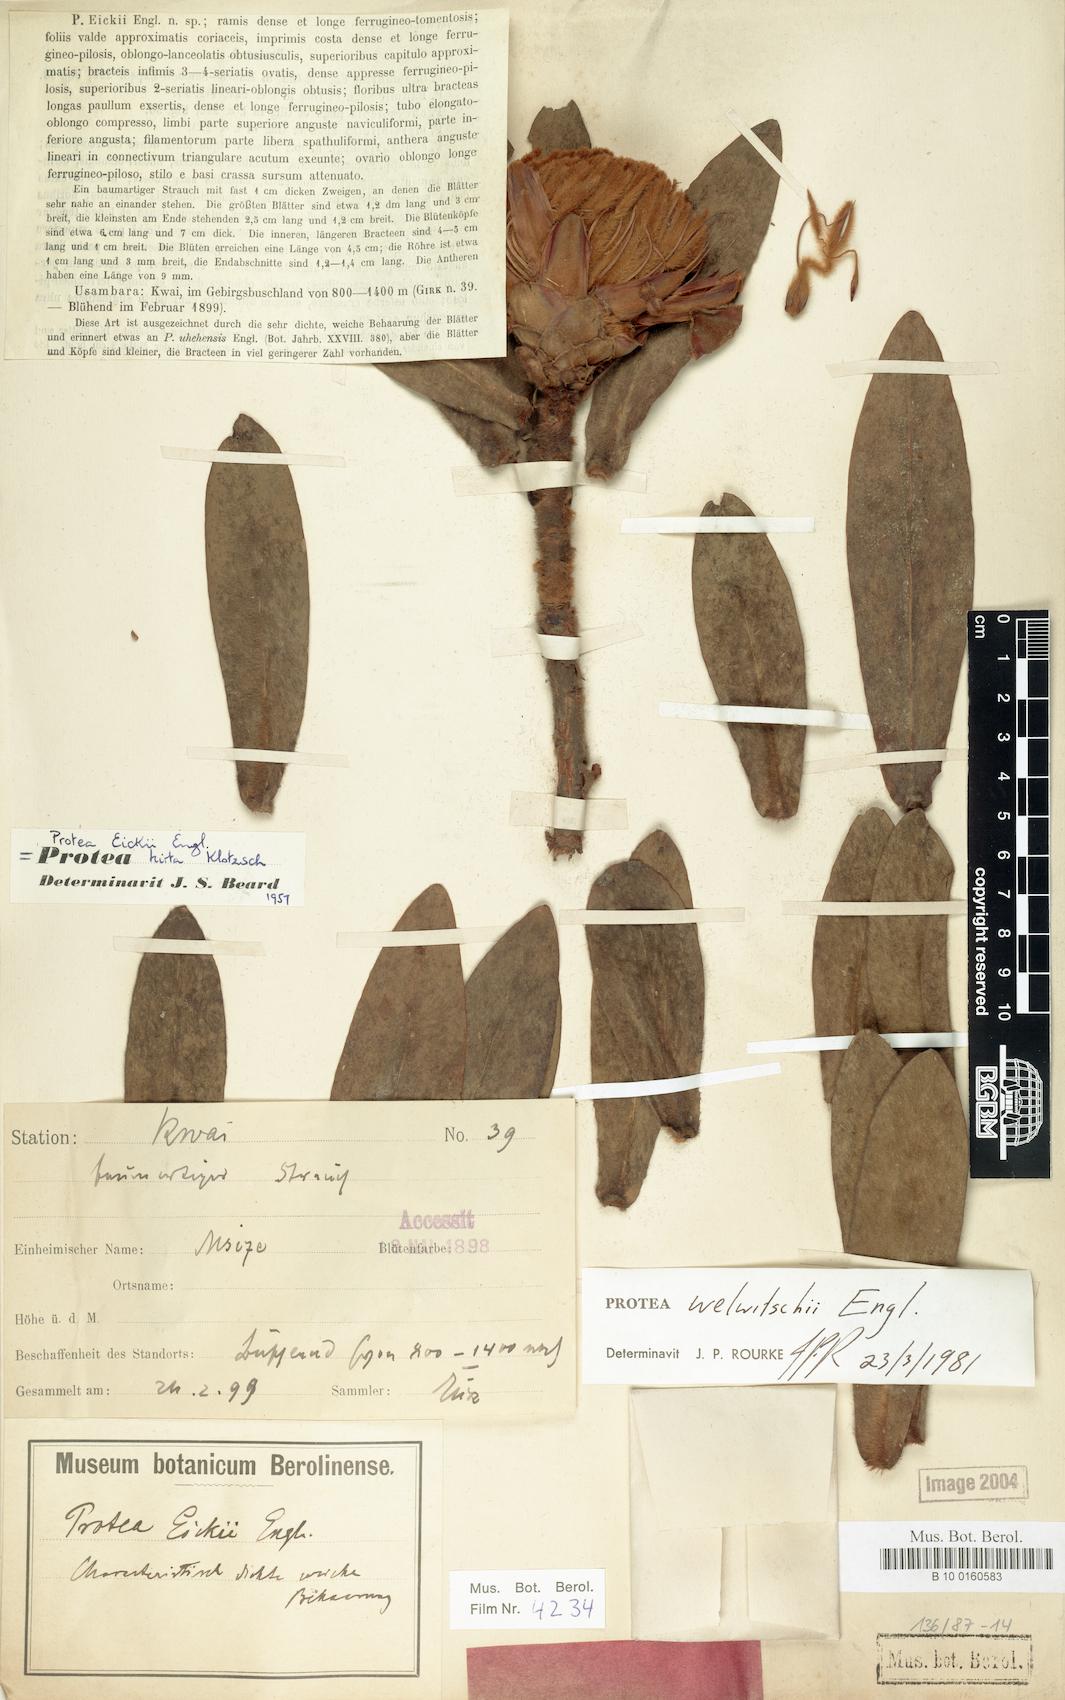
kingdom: Plantae
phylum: Tracheophyta
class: Magnoliopsida
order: Proteales
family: Proteaceae
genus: Protea
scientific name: Protea welwitschii
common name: Cluster-head protea
